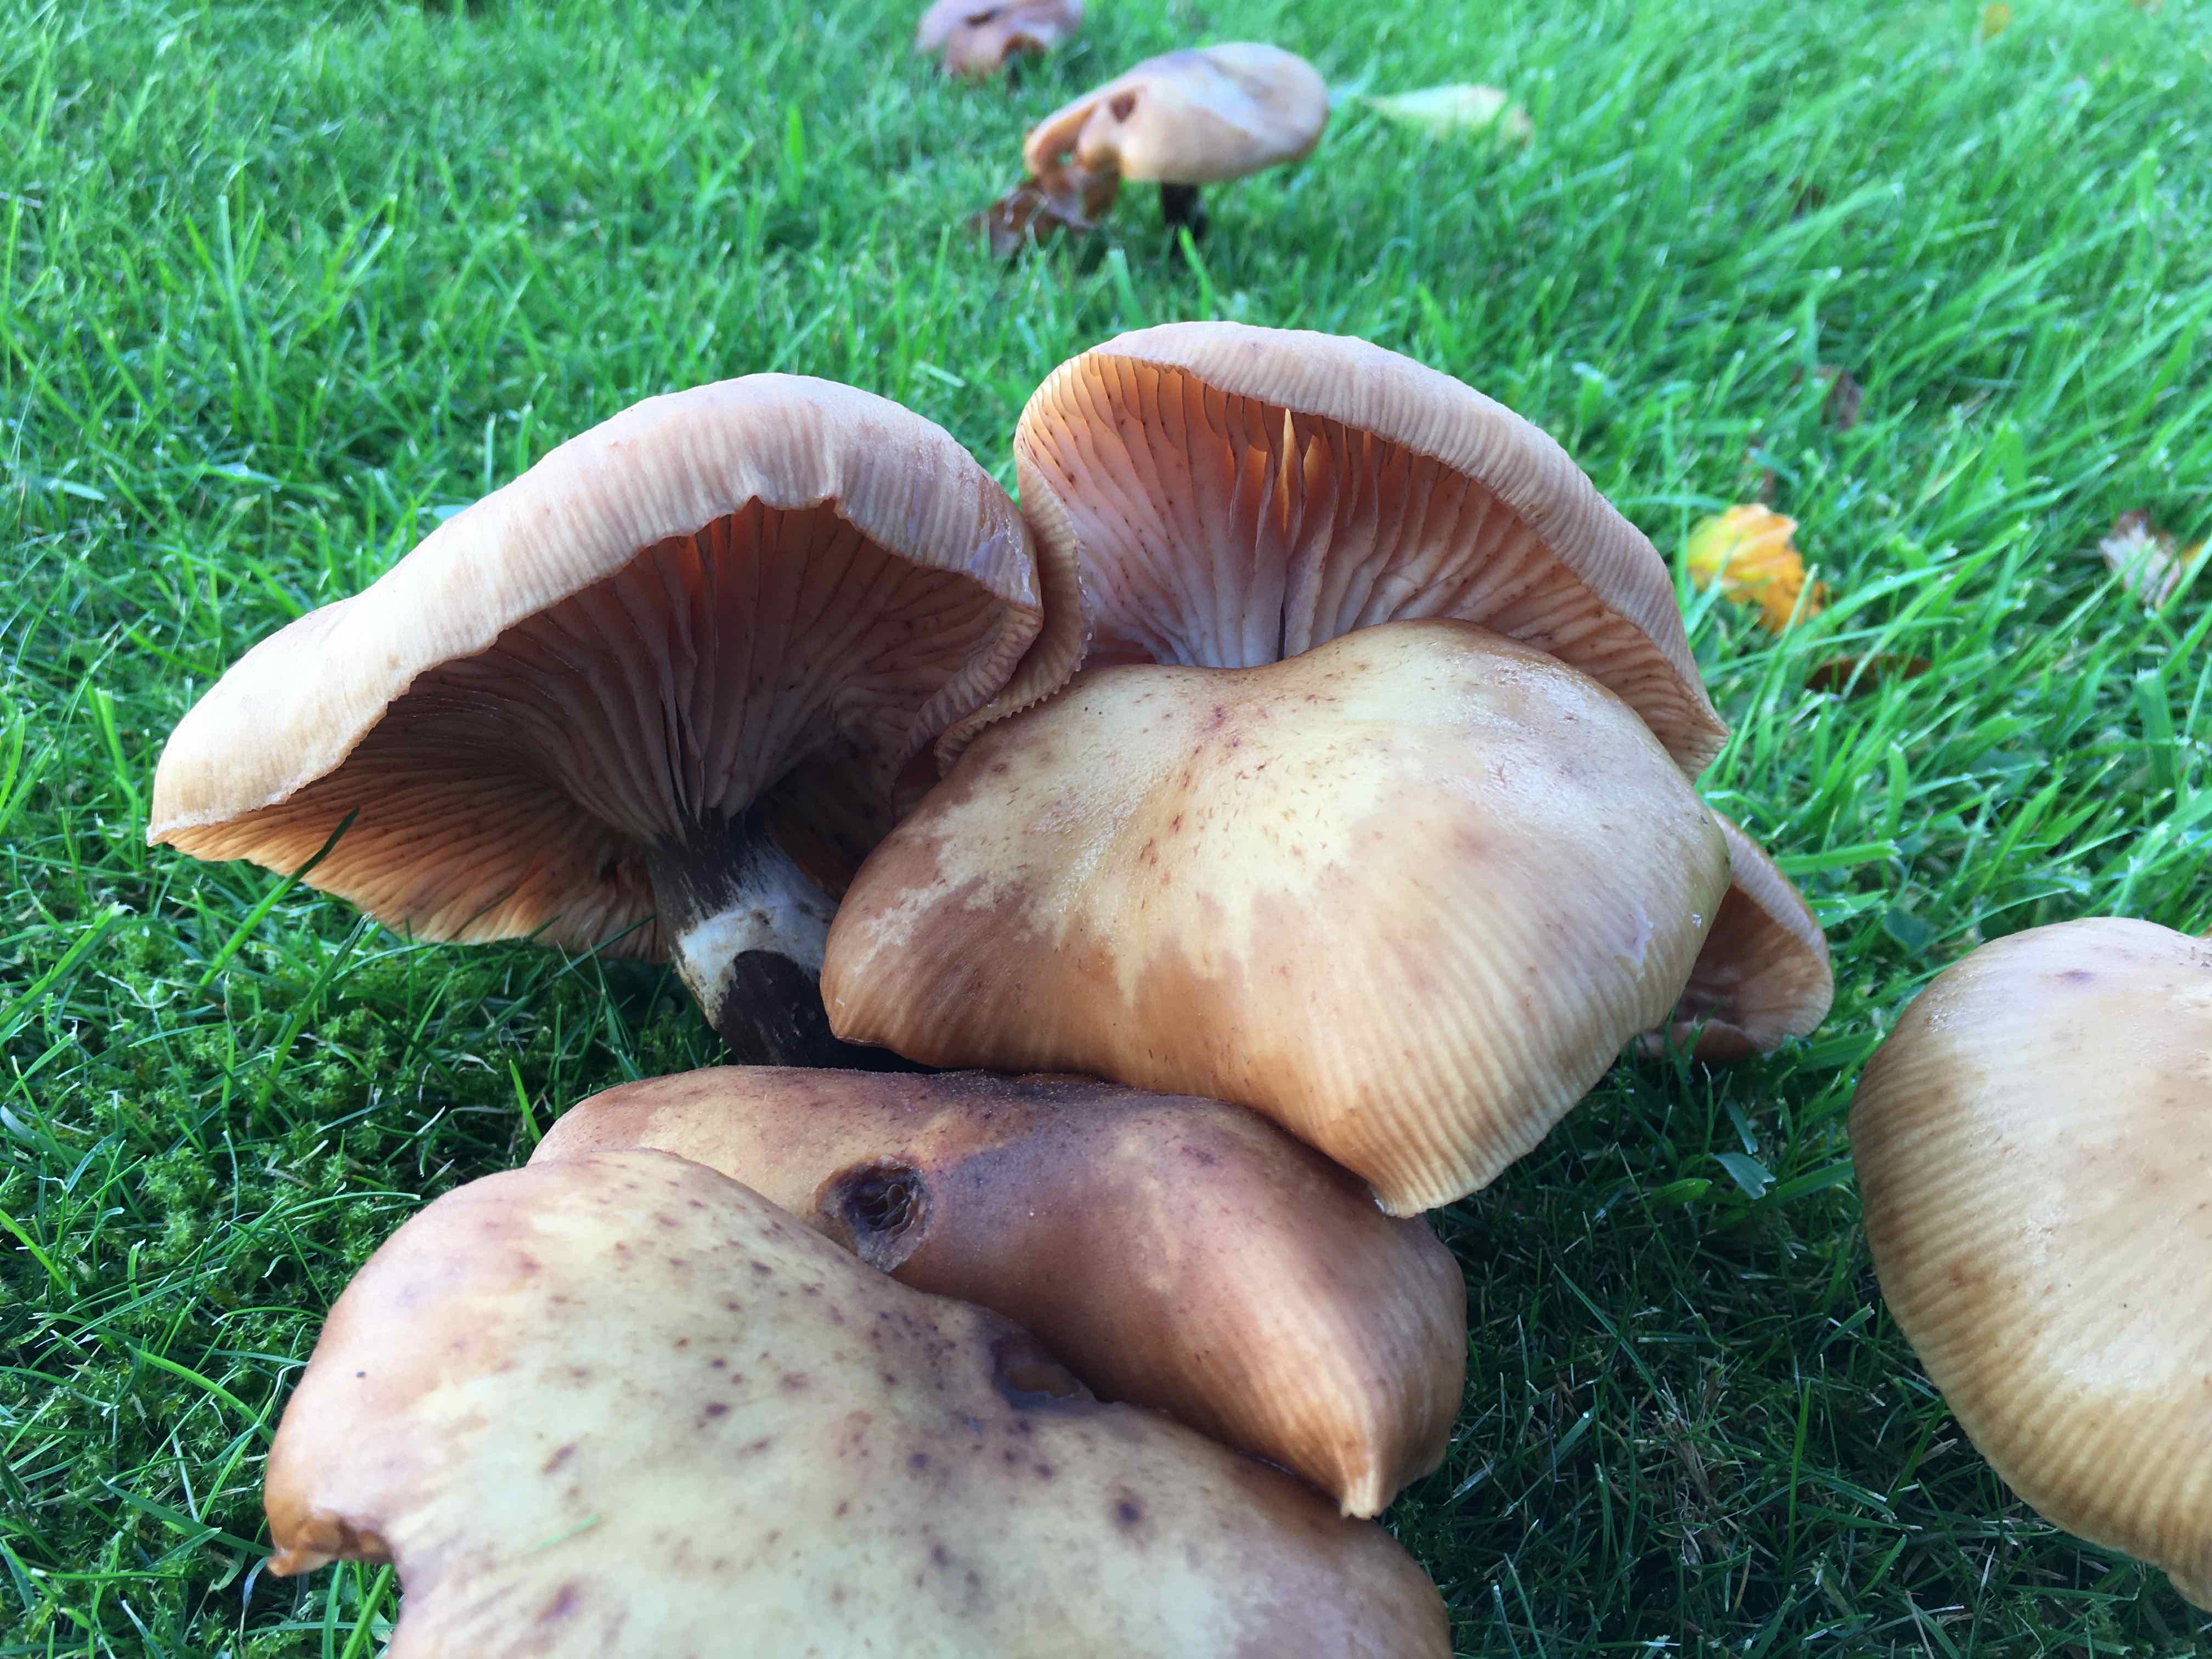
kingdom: Fungi
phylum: Basidiomycota
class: Agaricomycetes
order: Agaricales
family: Physalacriaceae
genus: Armillaria
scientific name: Armillaria
